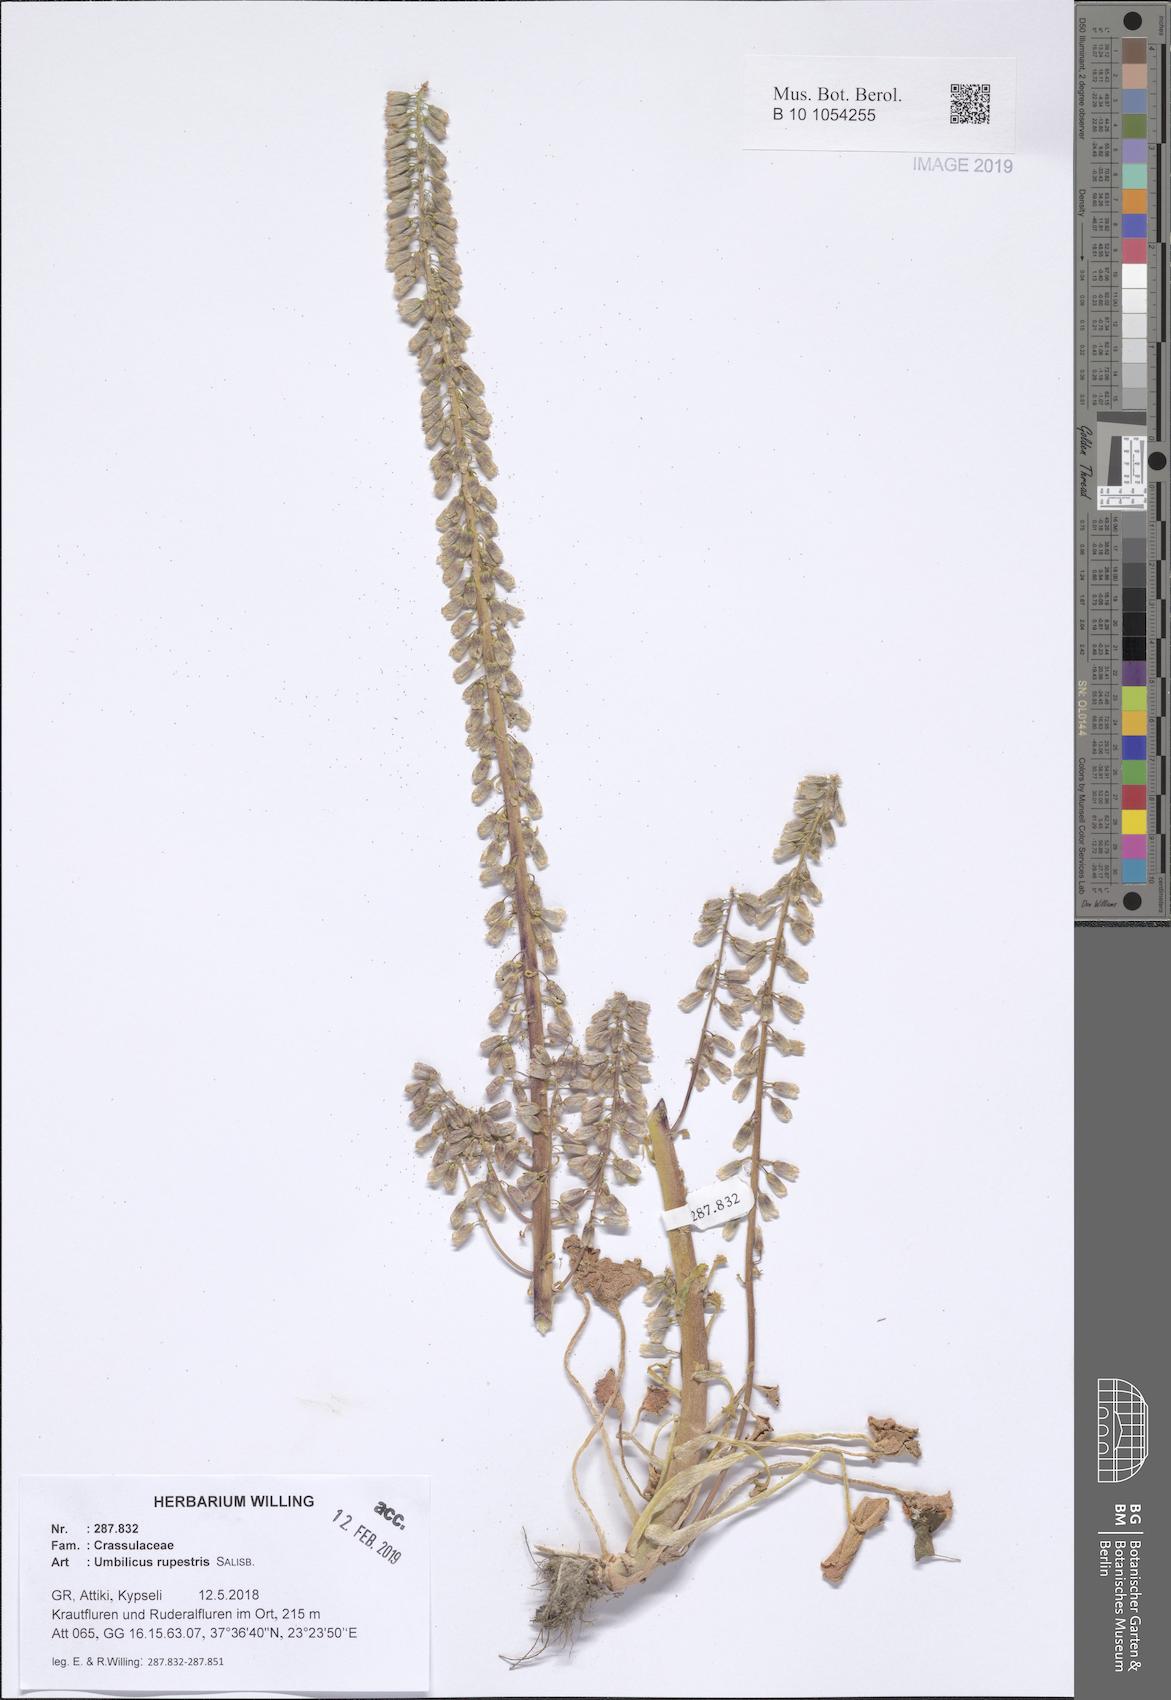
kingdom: Plantae
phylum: Tracheophyta
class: Magnoliopsida
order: Saxifragales
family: Crassulaceae
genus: Umbilicus
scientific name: Umbilicus rupestris
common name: Navelwort
